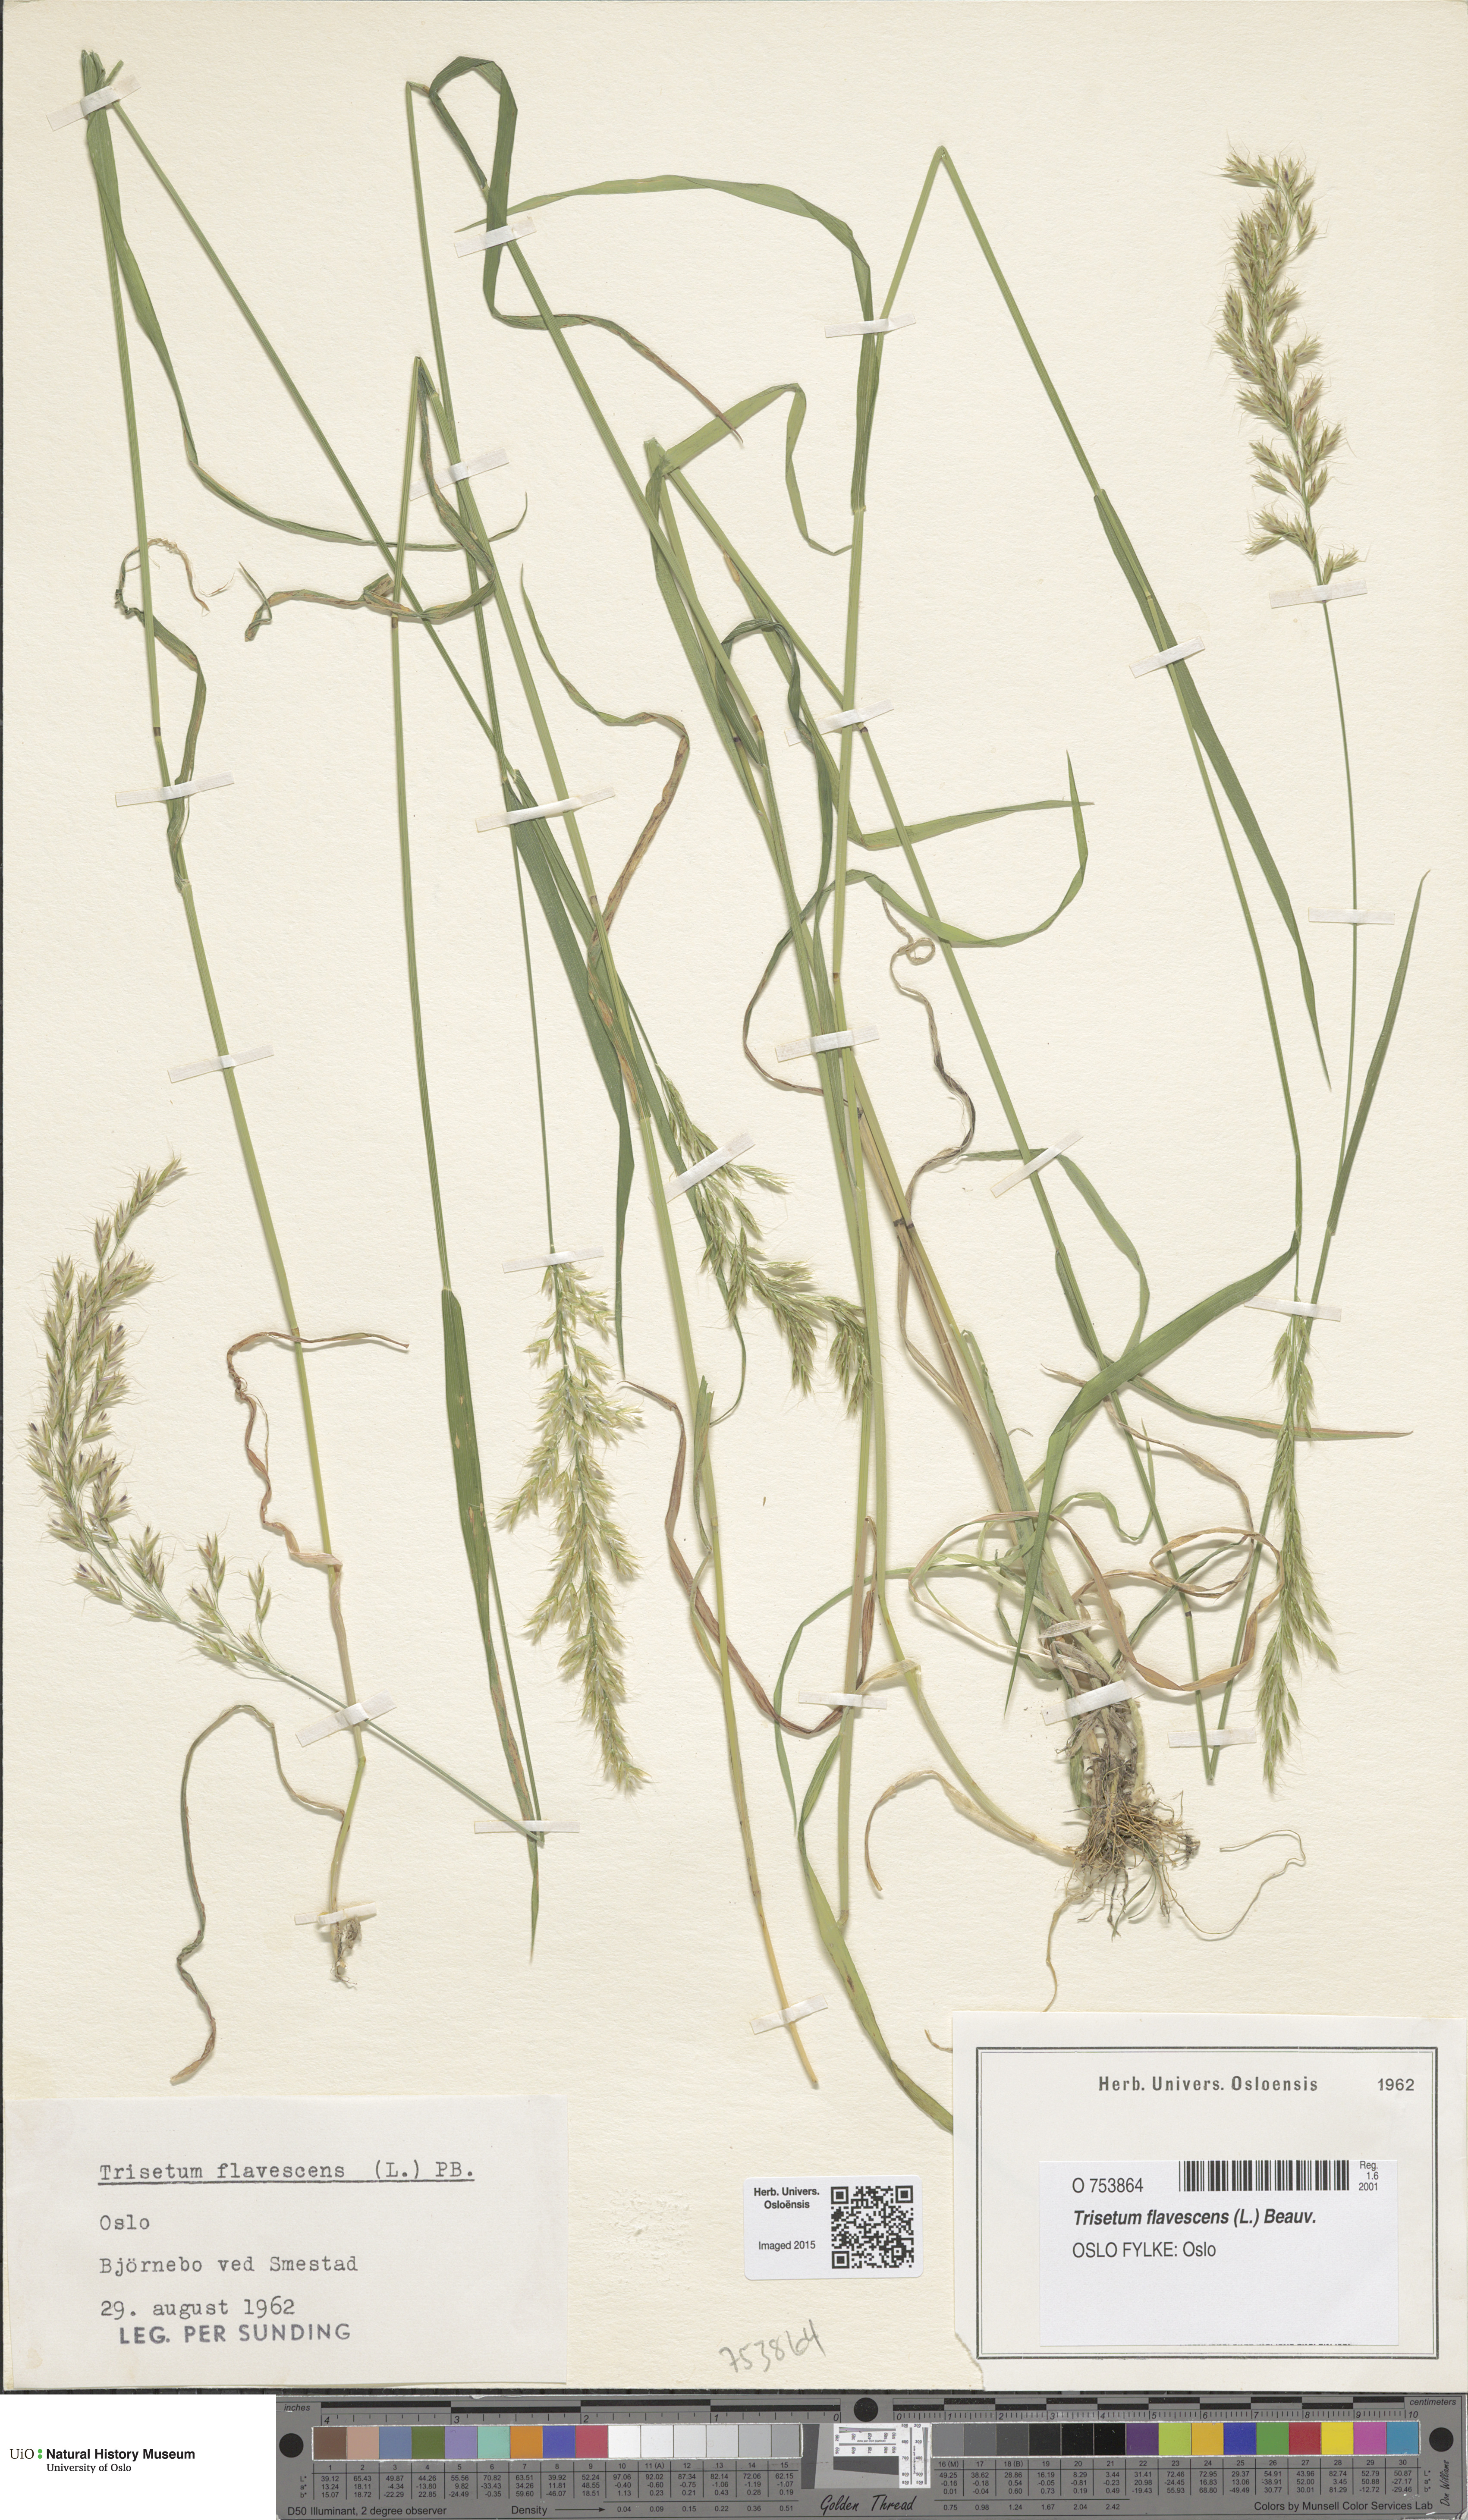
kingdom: Plantae
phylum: Tracheophyta
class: Liliopsida
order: Poales
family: Poaceae
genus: Trisetum
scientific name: Trisetum flavescens
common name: Yellow oat-grass
